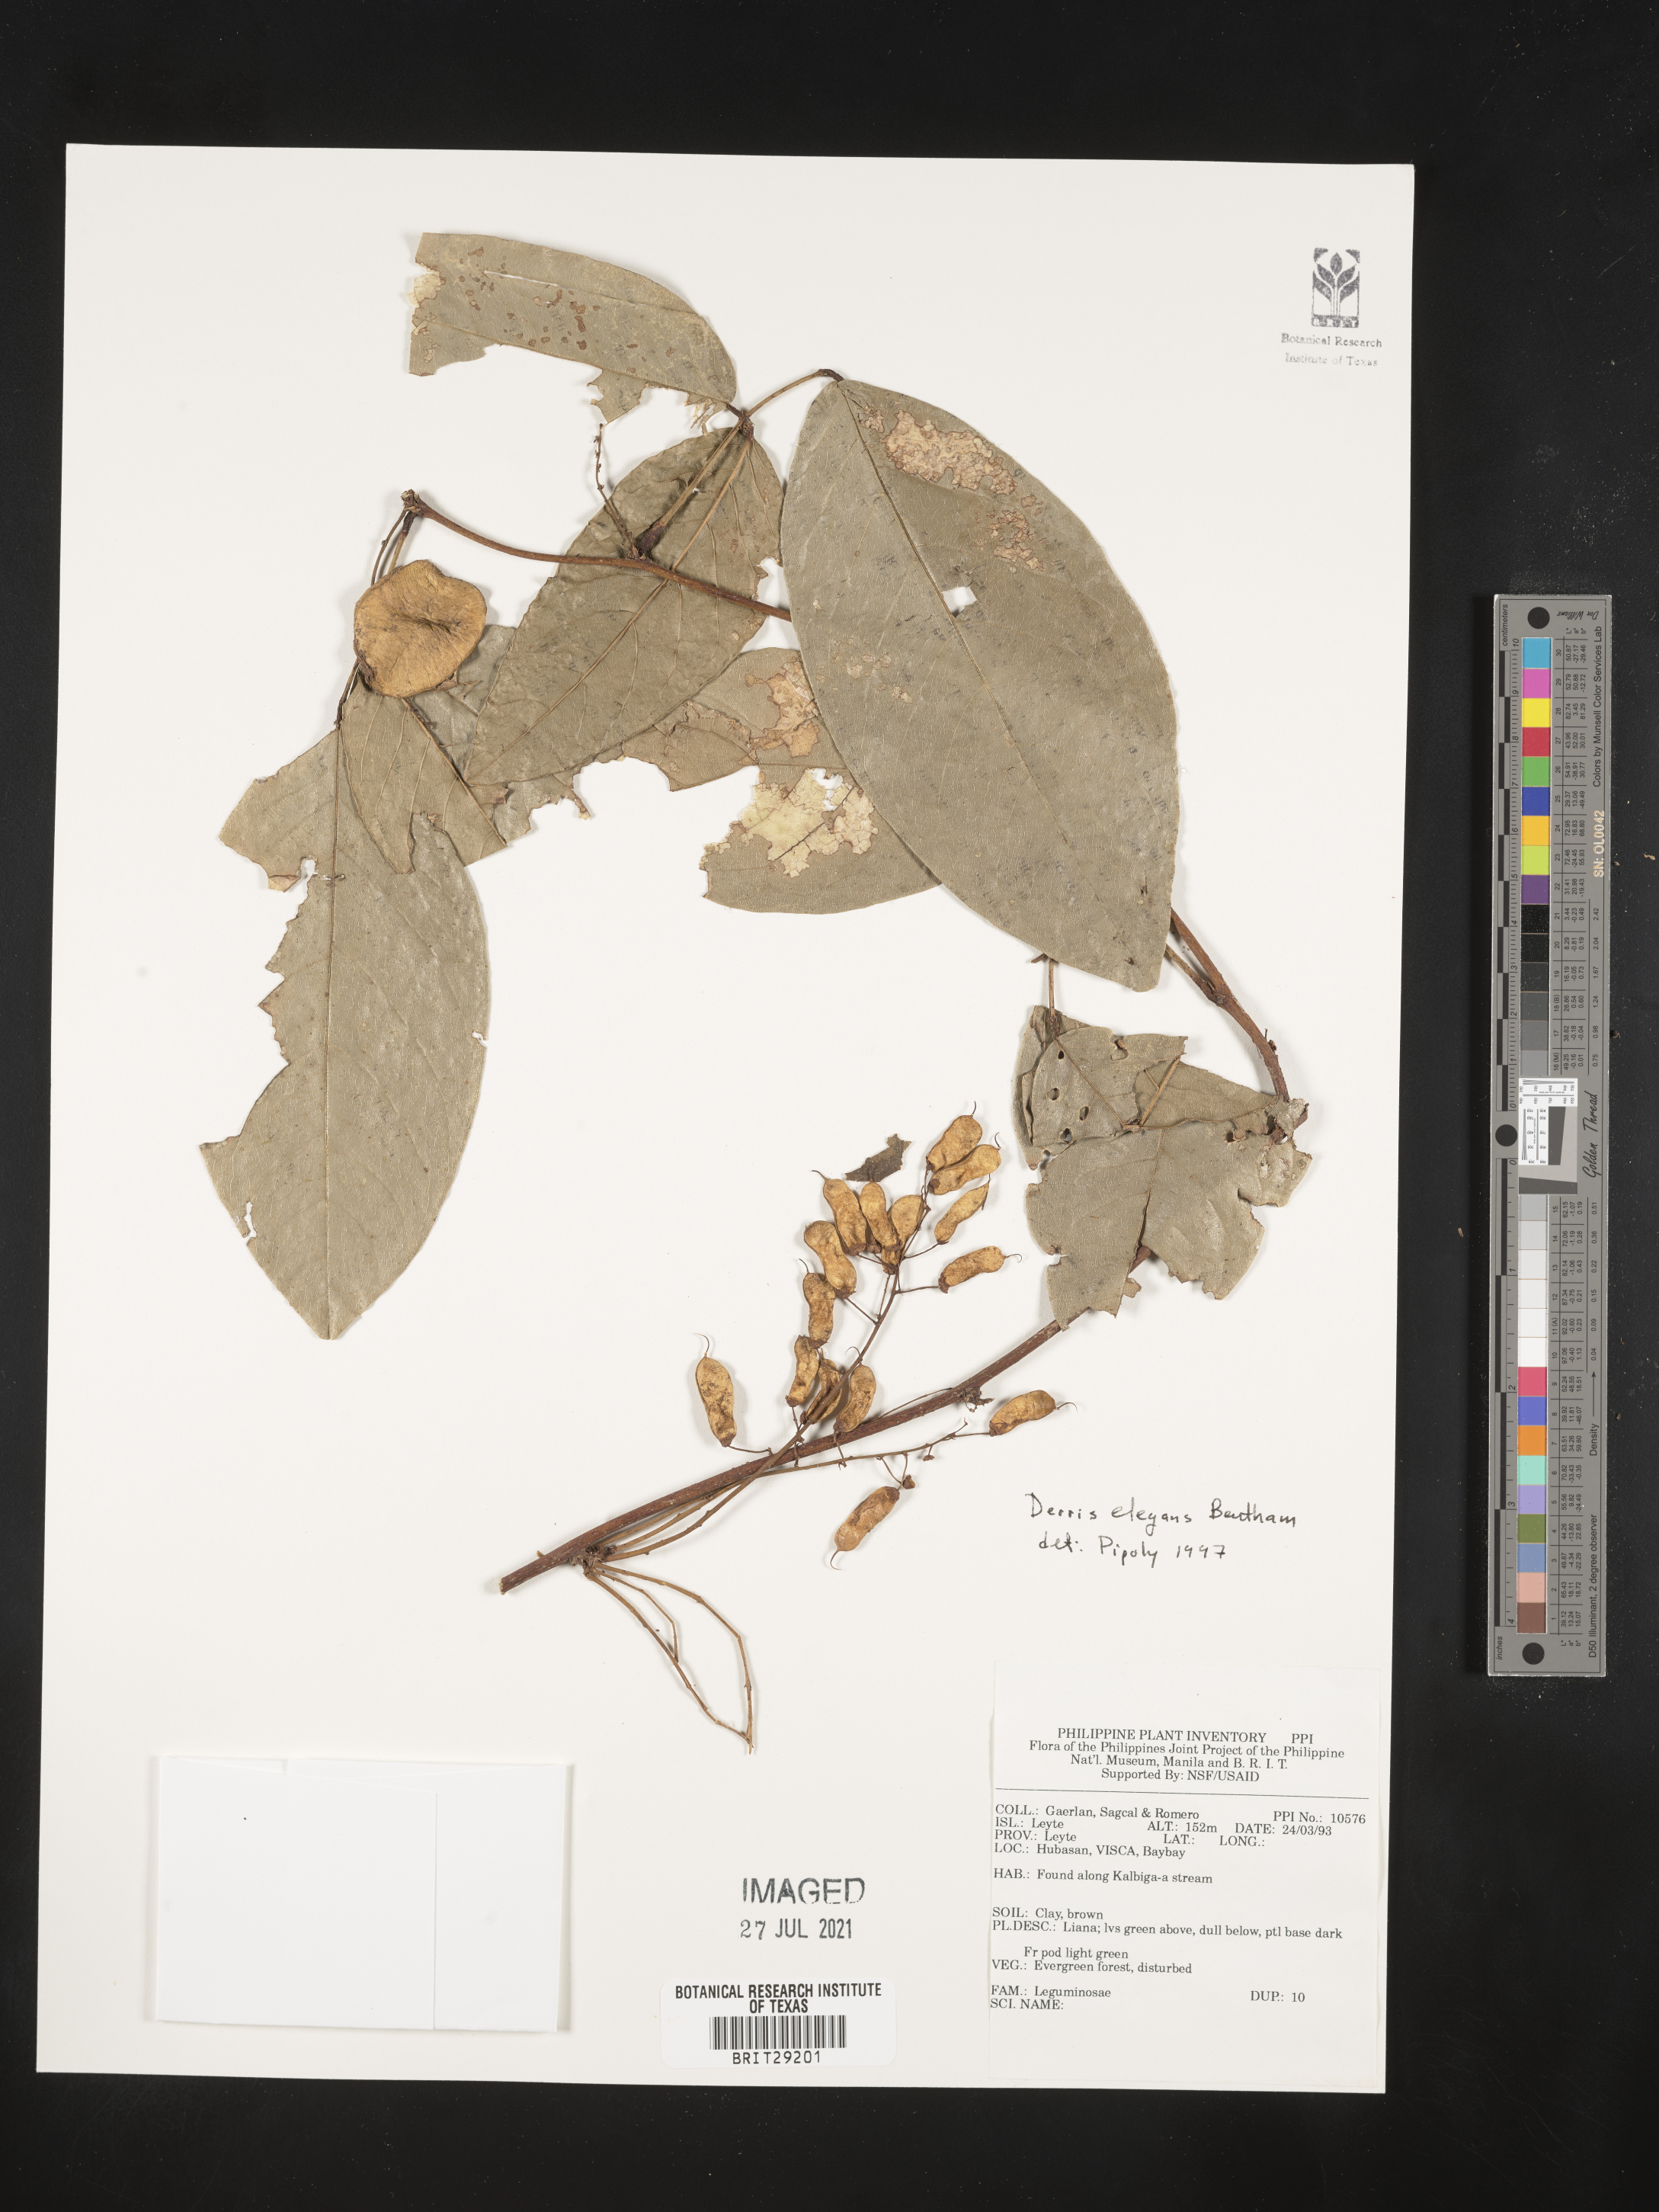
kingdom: Plantae
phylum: Tracheophyta
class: Magnoliopsida
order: Fabales
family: Fabaceae
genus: Derris
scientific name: Derris elegans
